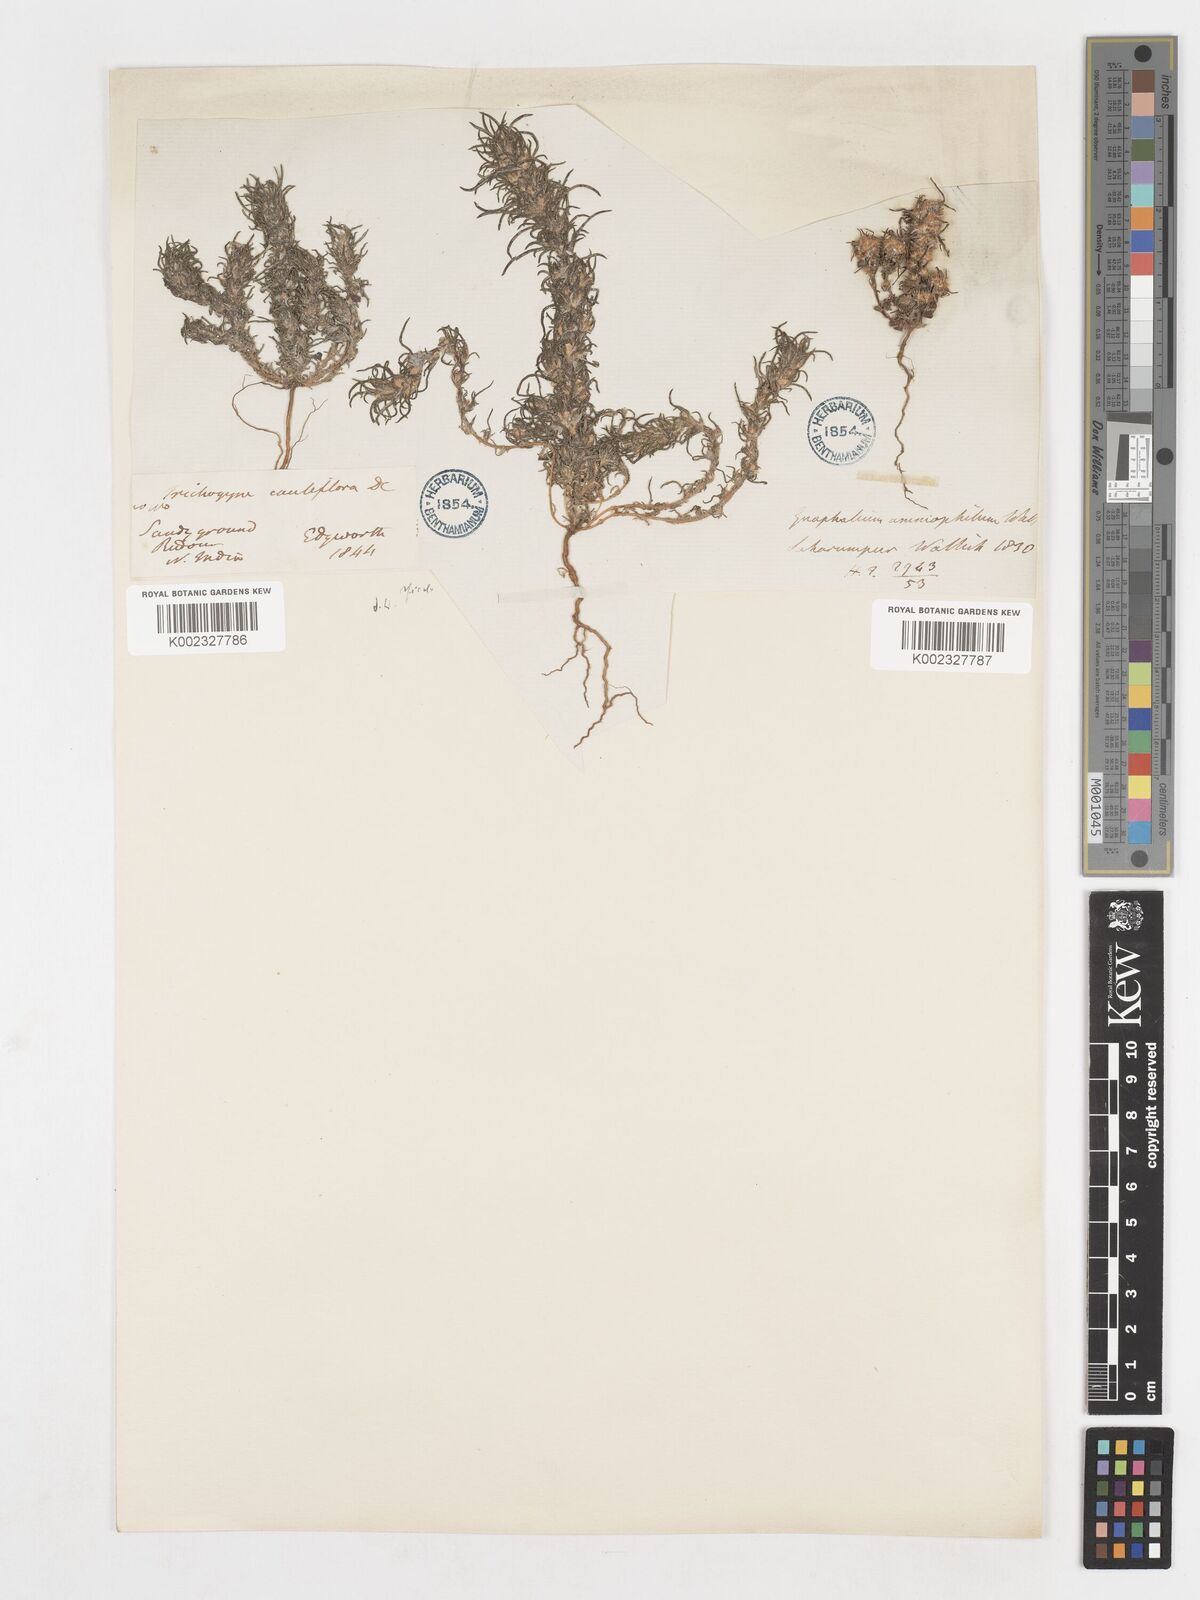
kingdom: Plantae
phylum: Tracheophyta
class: Magnoliopsida
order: Asterales
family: Asteraceae
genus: Ifloga
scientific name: Ifloga spicata
